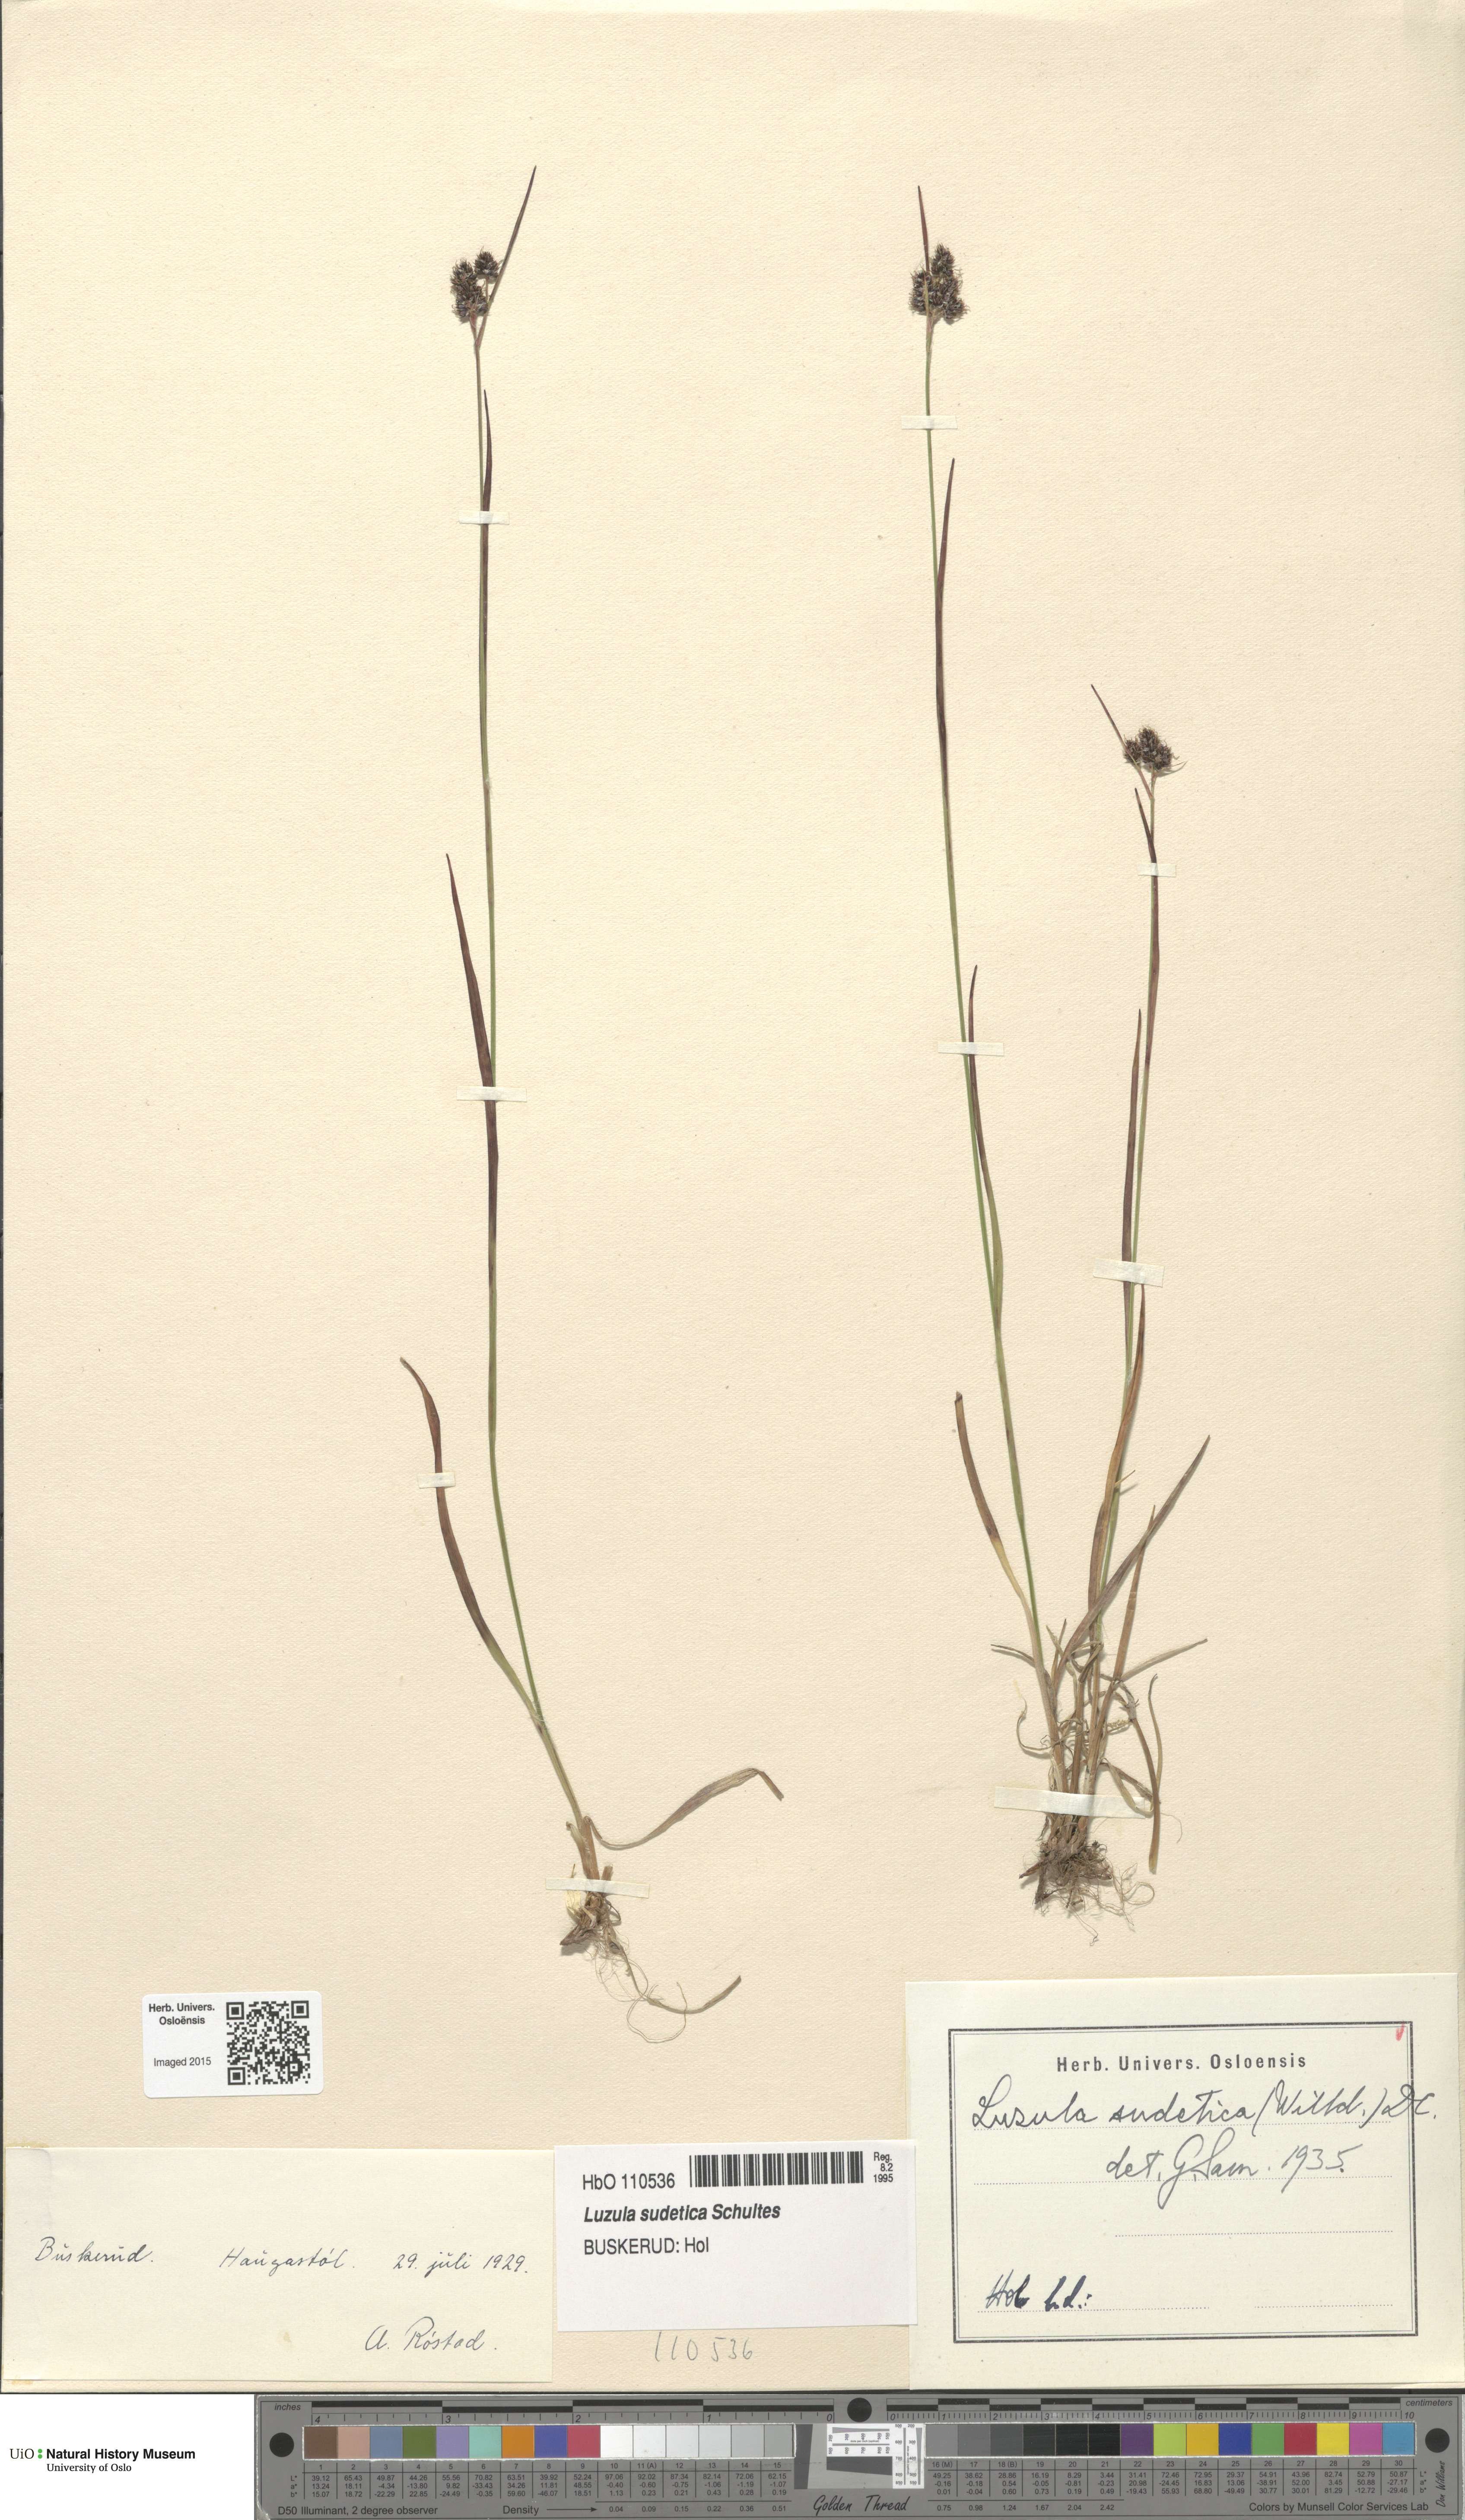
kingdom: Plantae
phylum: Tracheophyta
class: Liliopsida
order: Poales
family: Juncaceae
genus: Luzula
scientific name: Luzula sudetica
